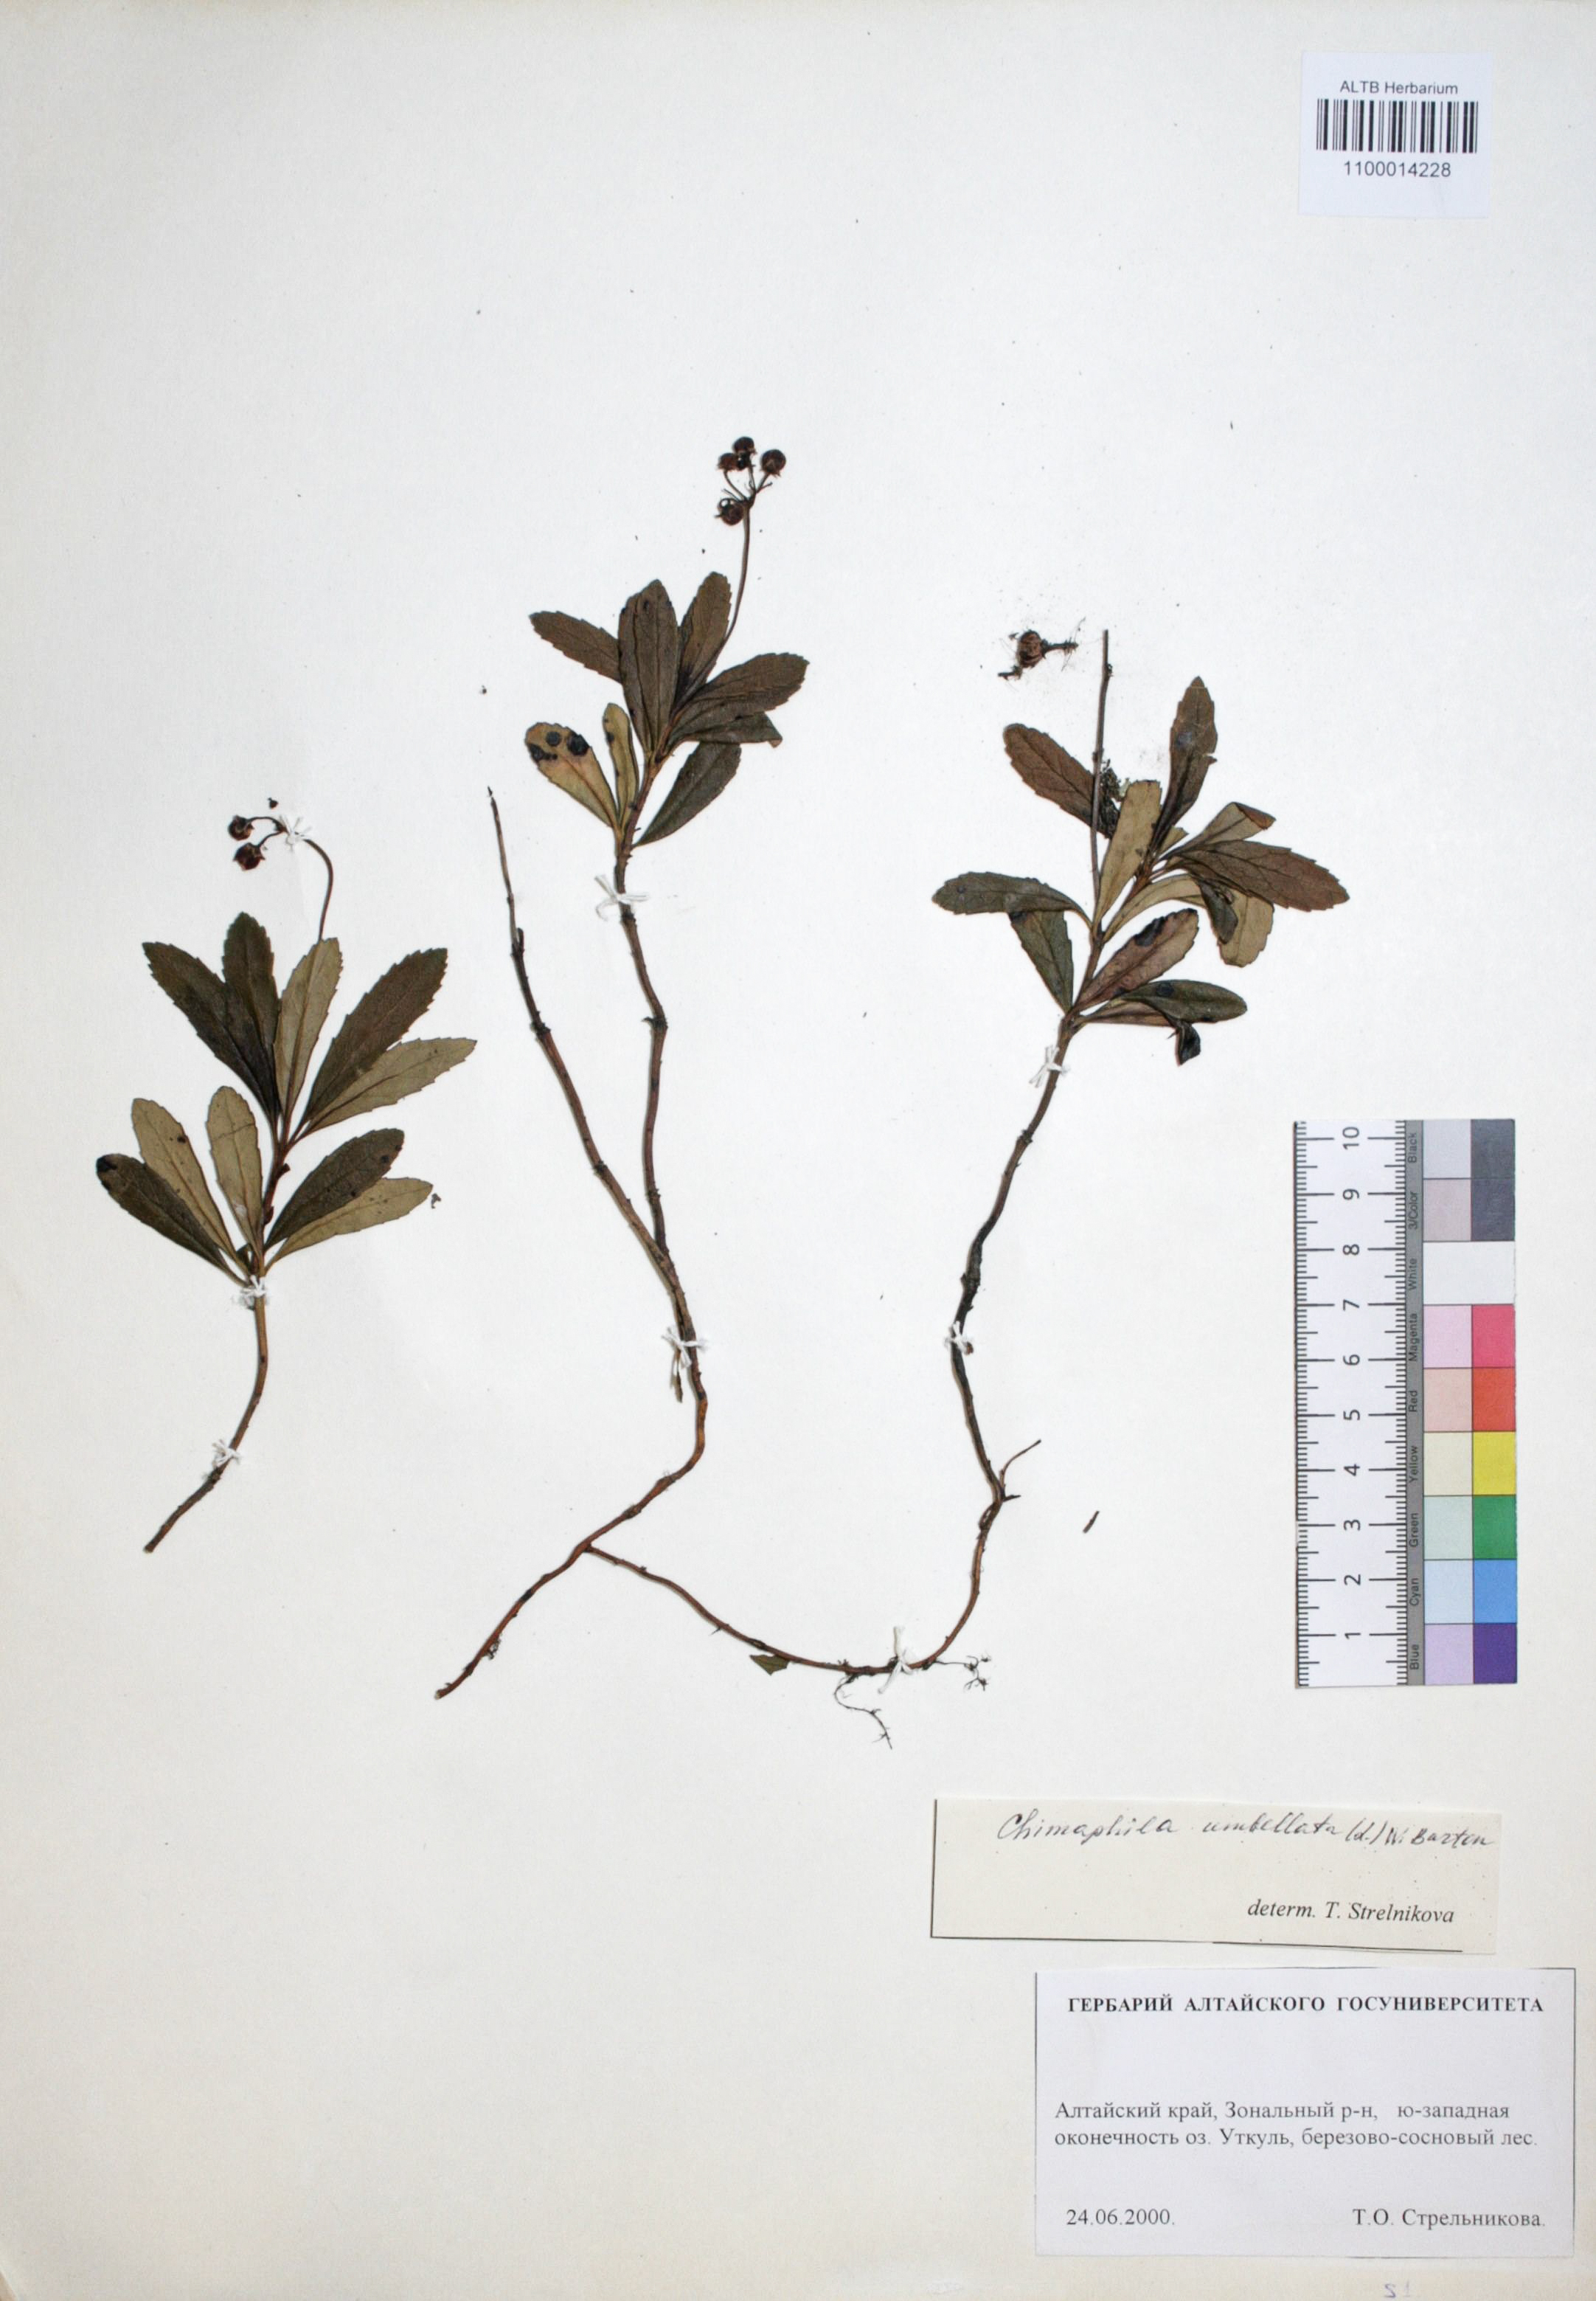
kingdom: Plantae
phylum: Tracheophyta
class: Magnoliopsida
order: Ericales
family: Ericaceae
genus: Chimaphila
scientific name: Chimaphila umbellata
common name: Pipsissewa
